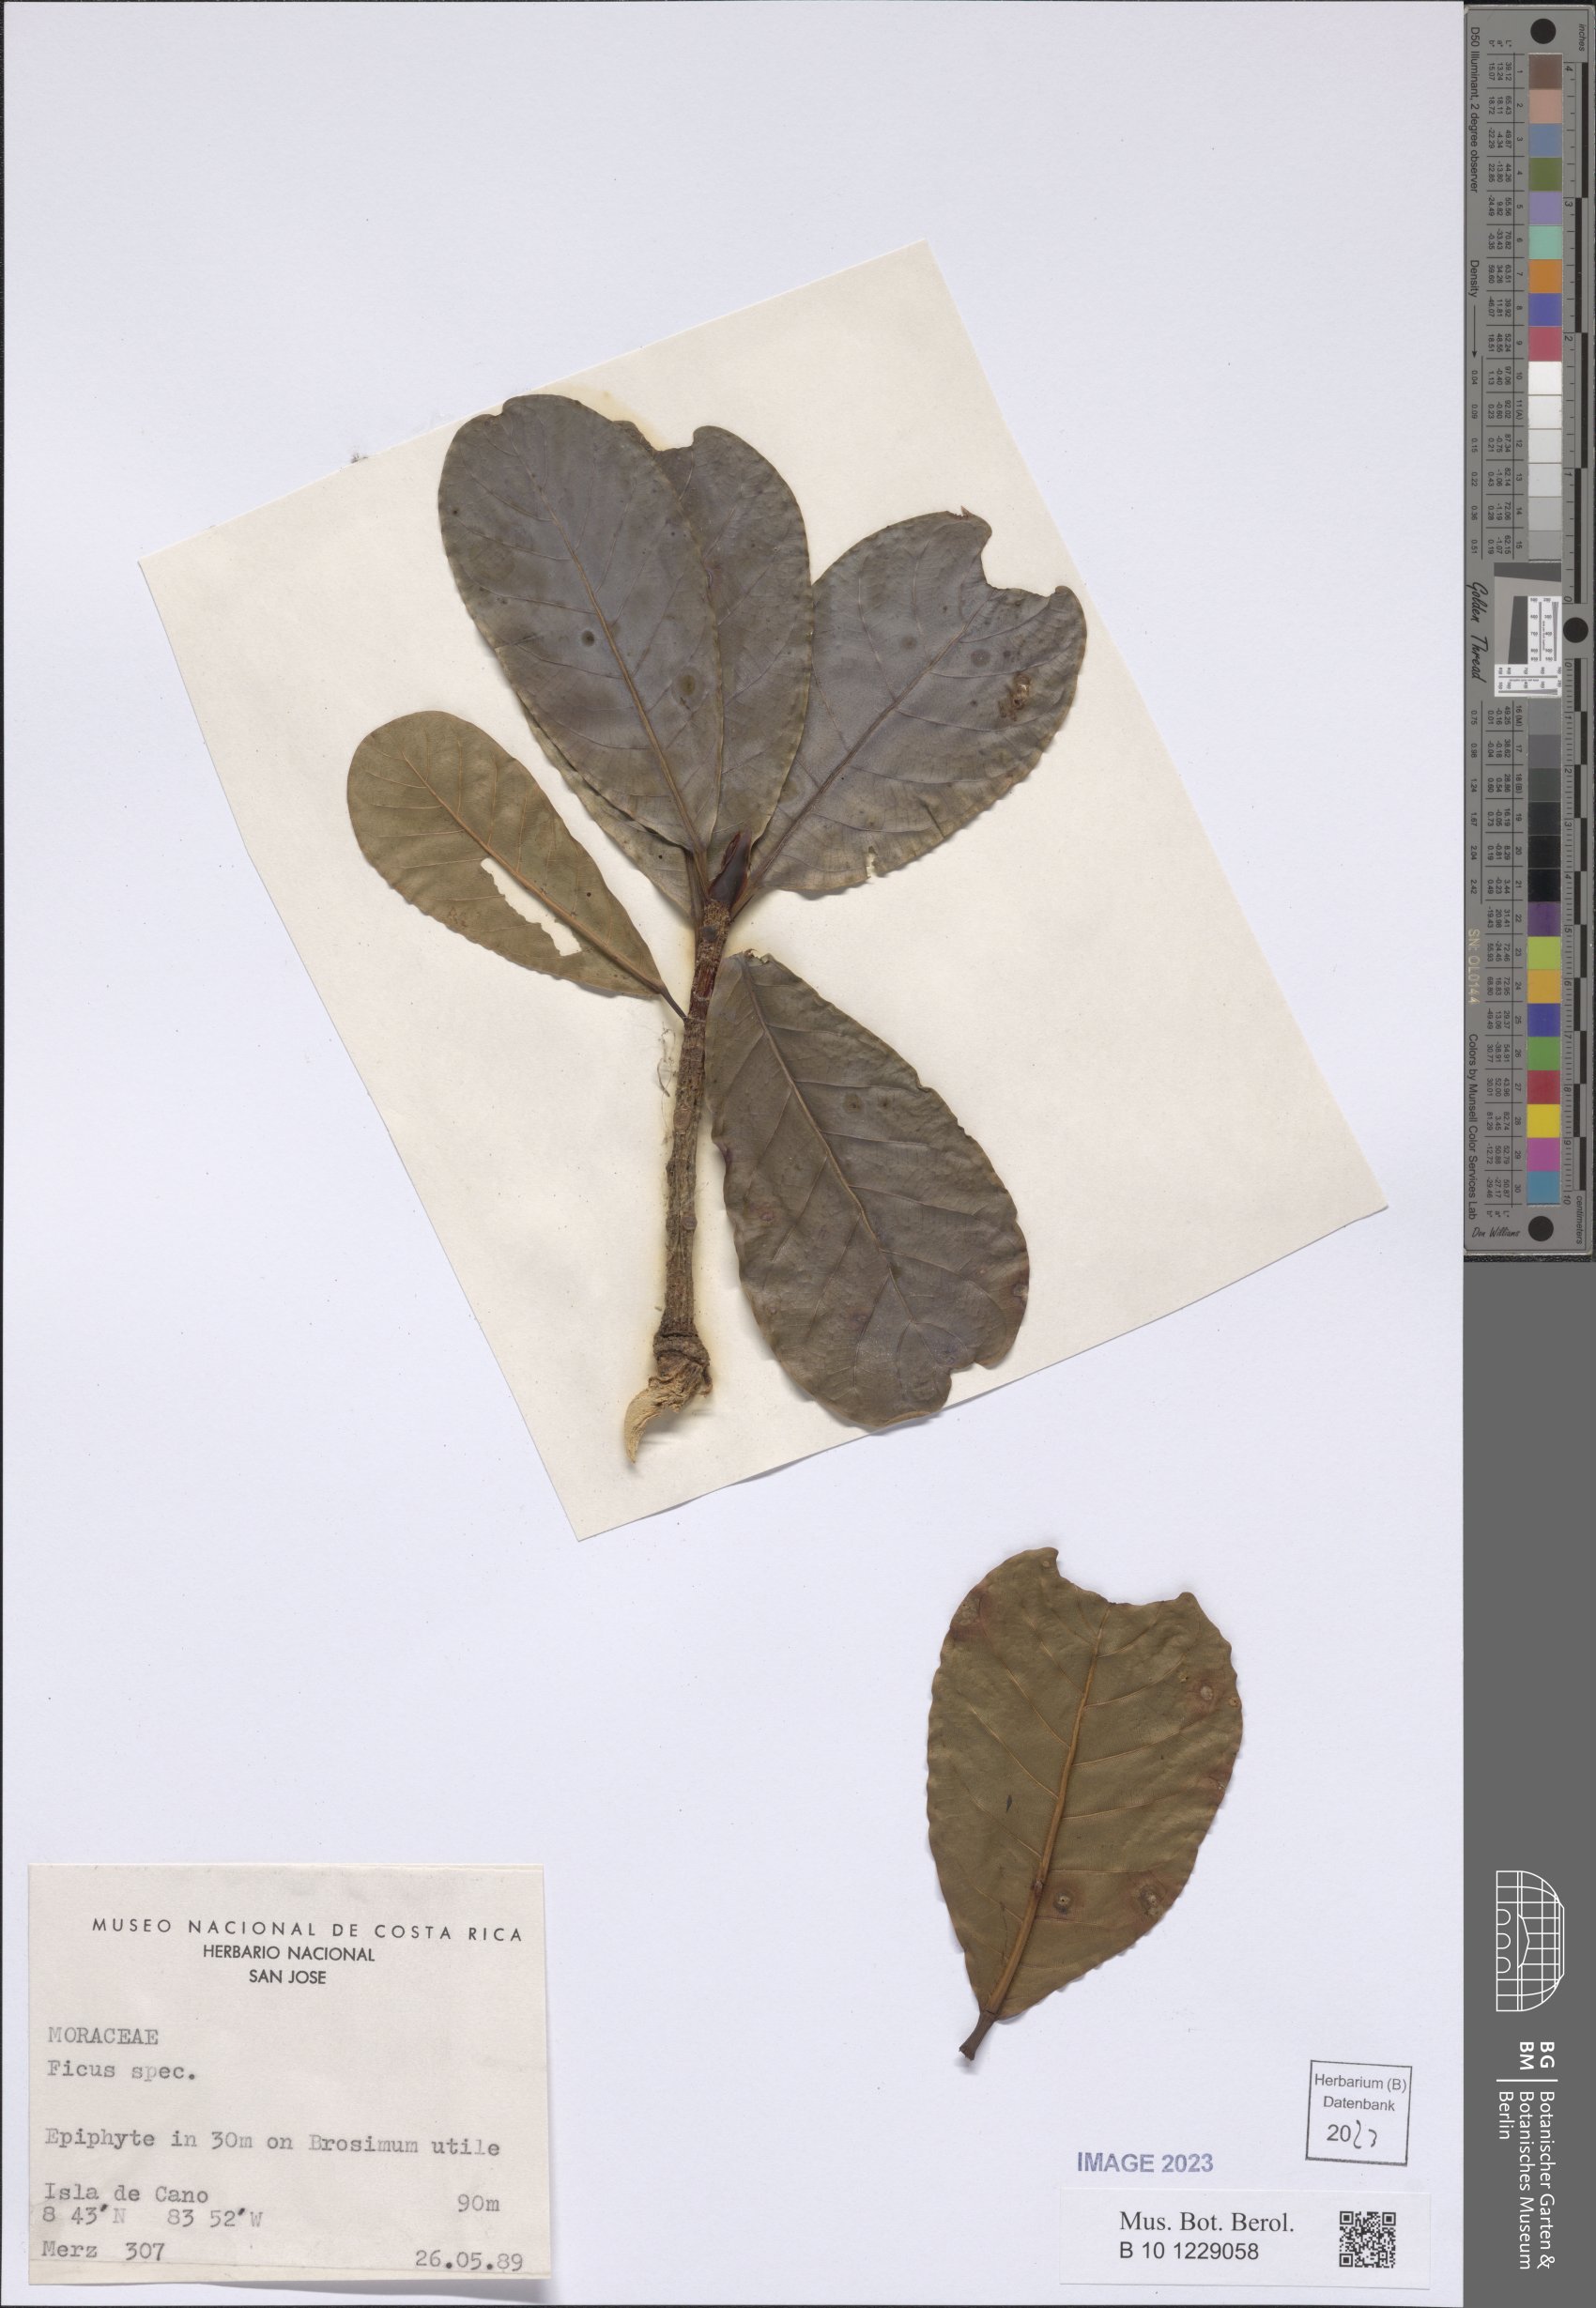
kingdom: Plantae
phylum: Tracheophyta
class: Magnoliopsida
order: Rosales
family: Moraceae
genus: Ficus
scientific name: Ficus
